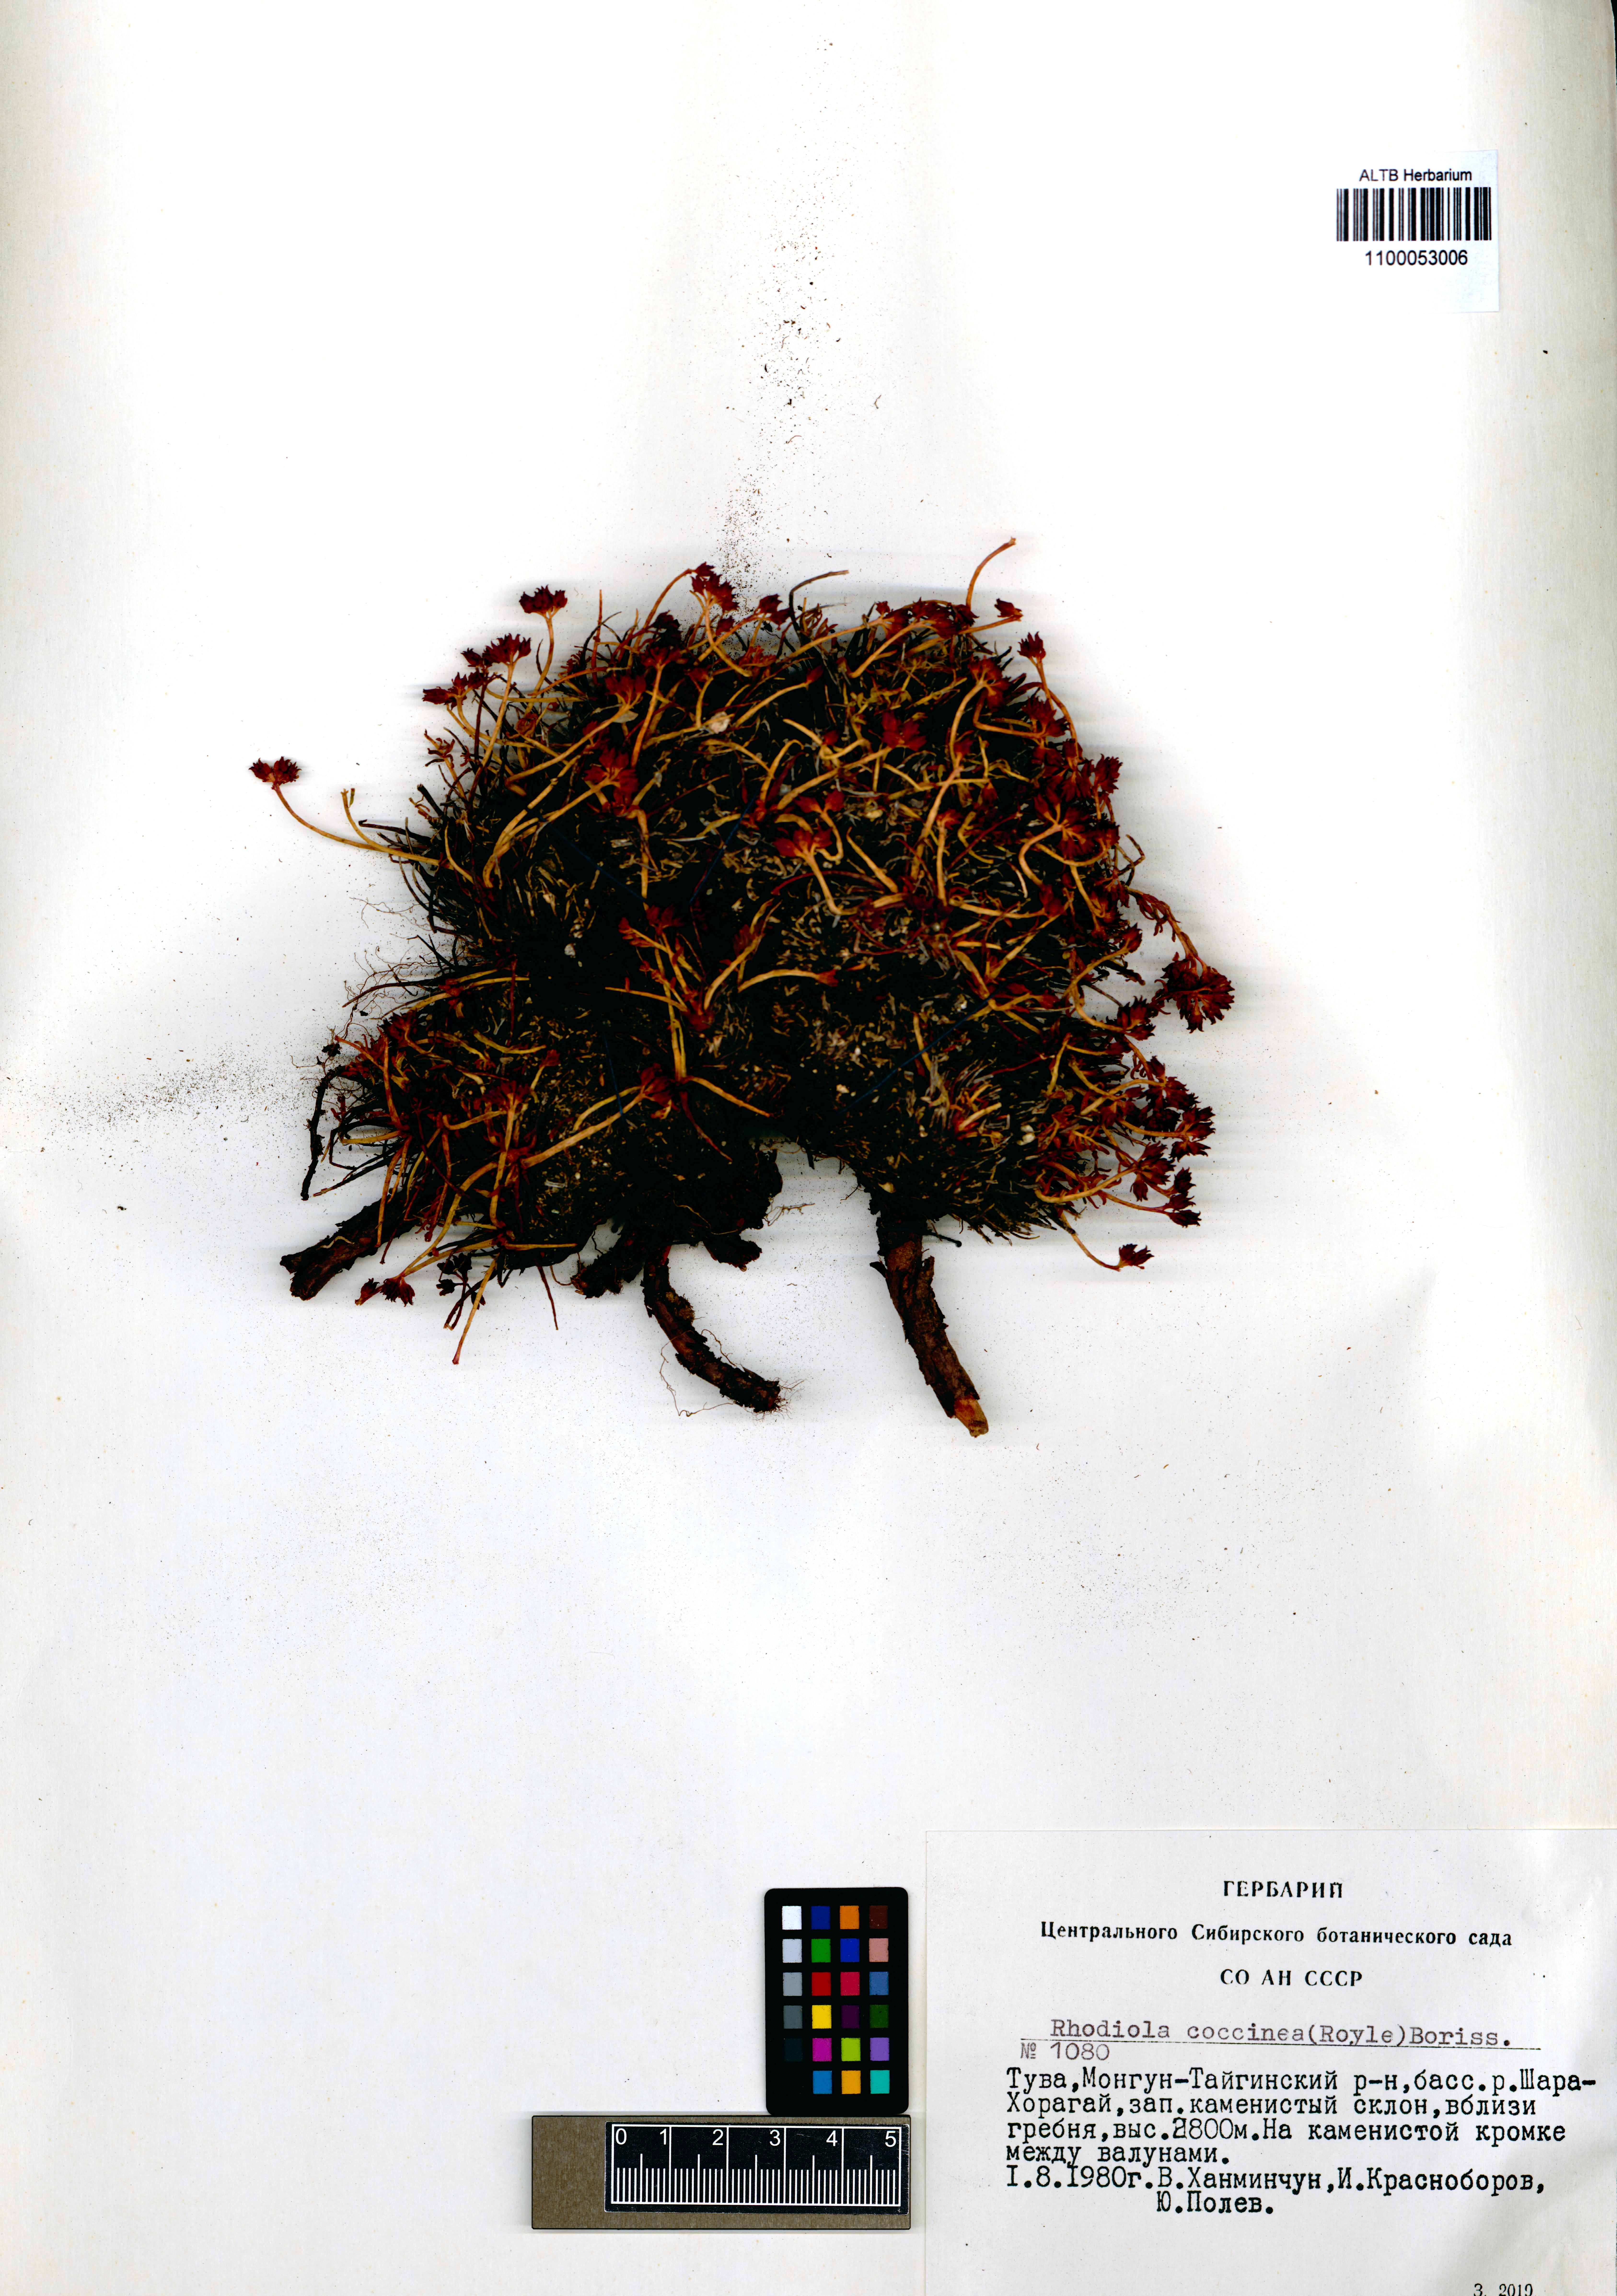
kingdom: Plantae
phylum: Tracheophyta
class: Magnoliopsida
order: Saxifragales
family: Crassulaceae
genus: Rhodiola
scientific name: Rhodiola coccinea
